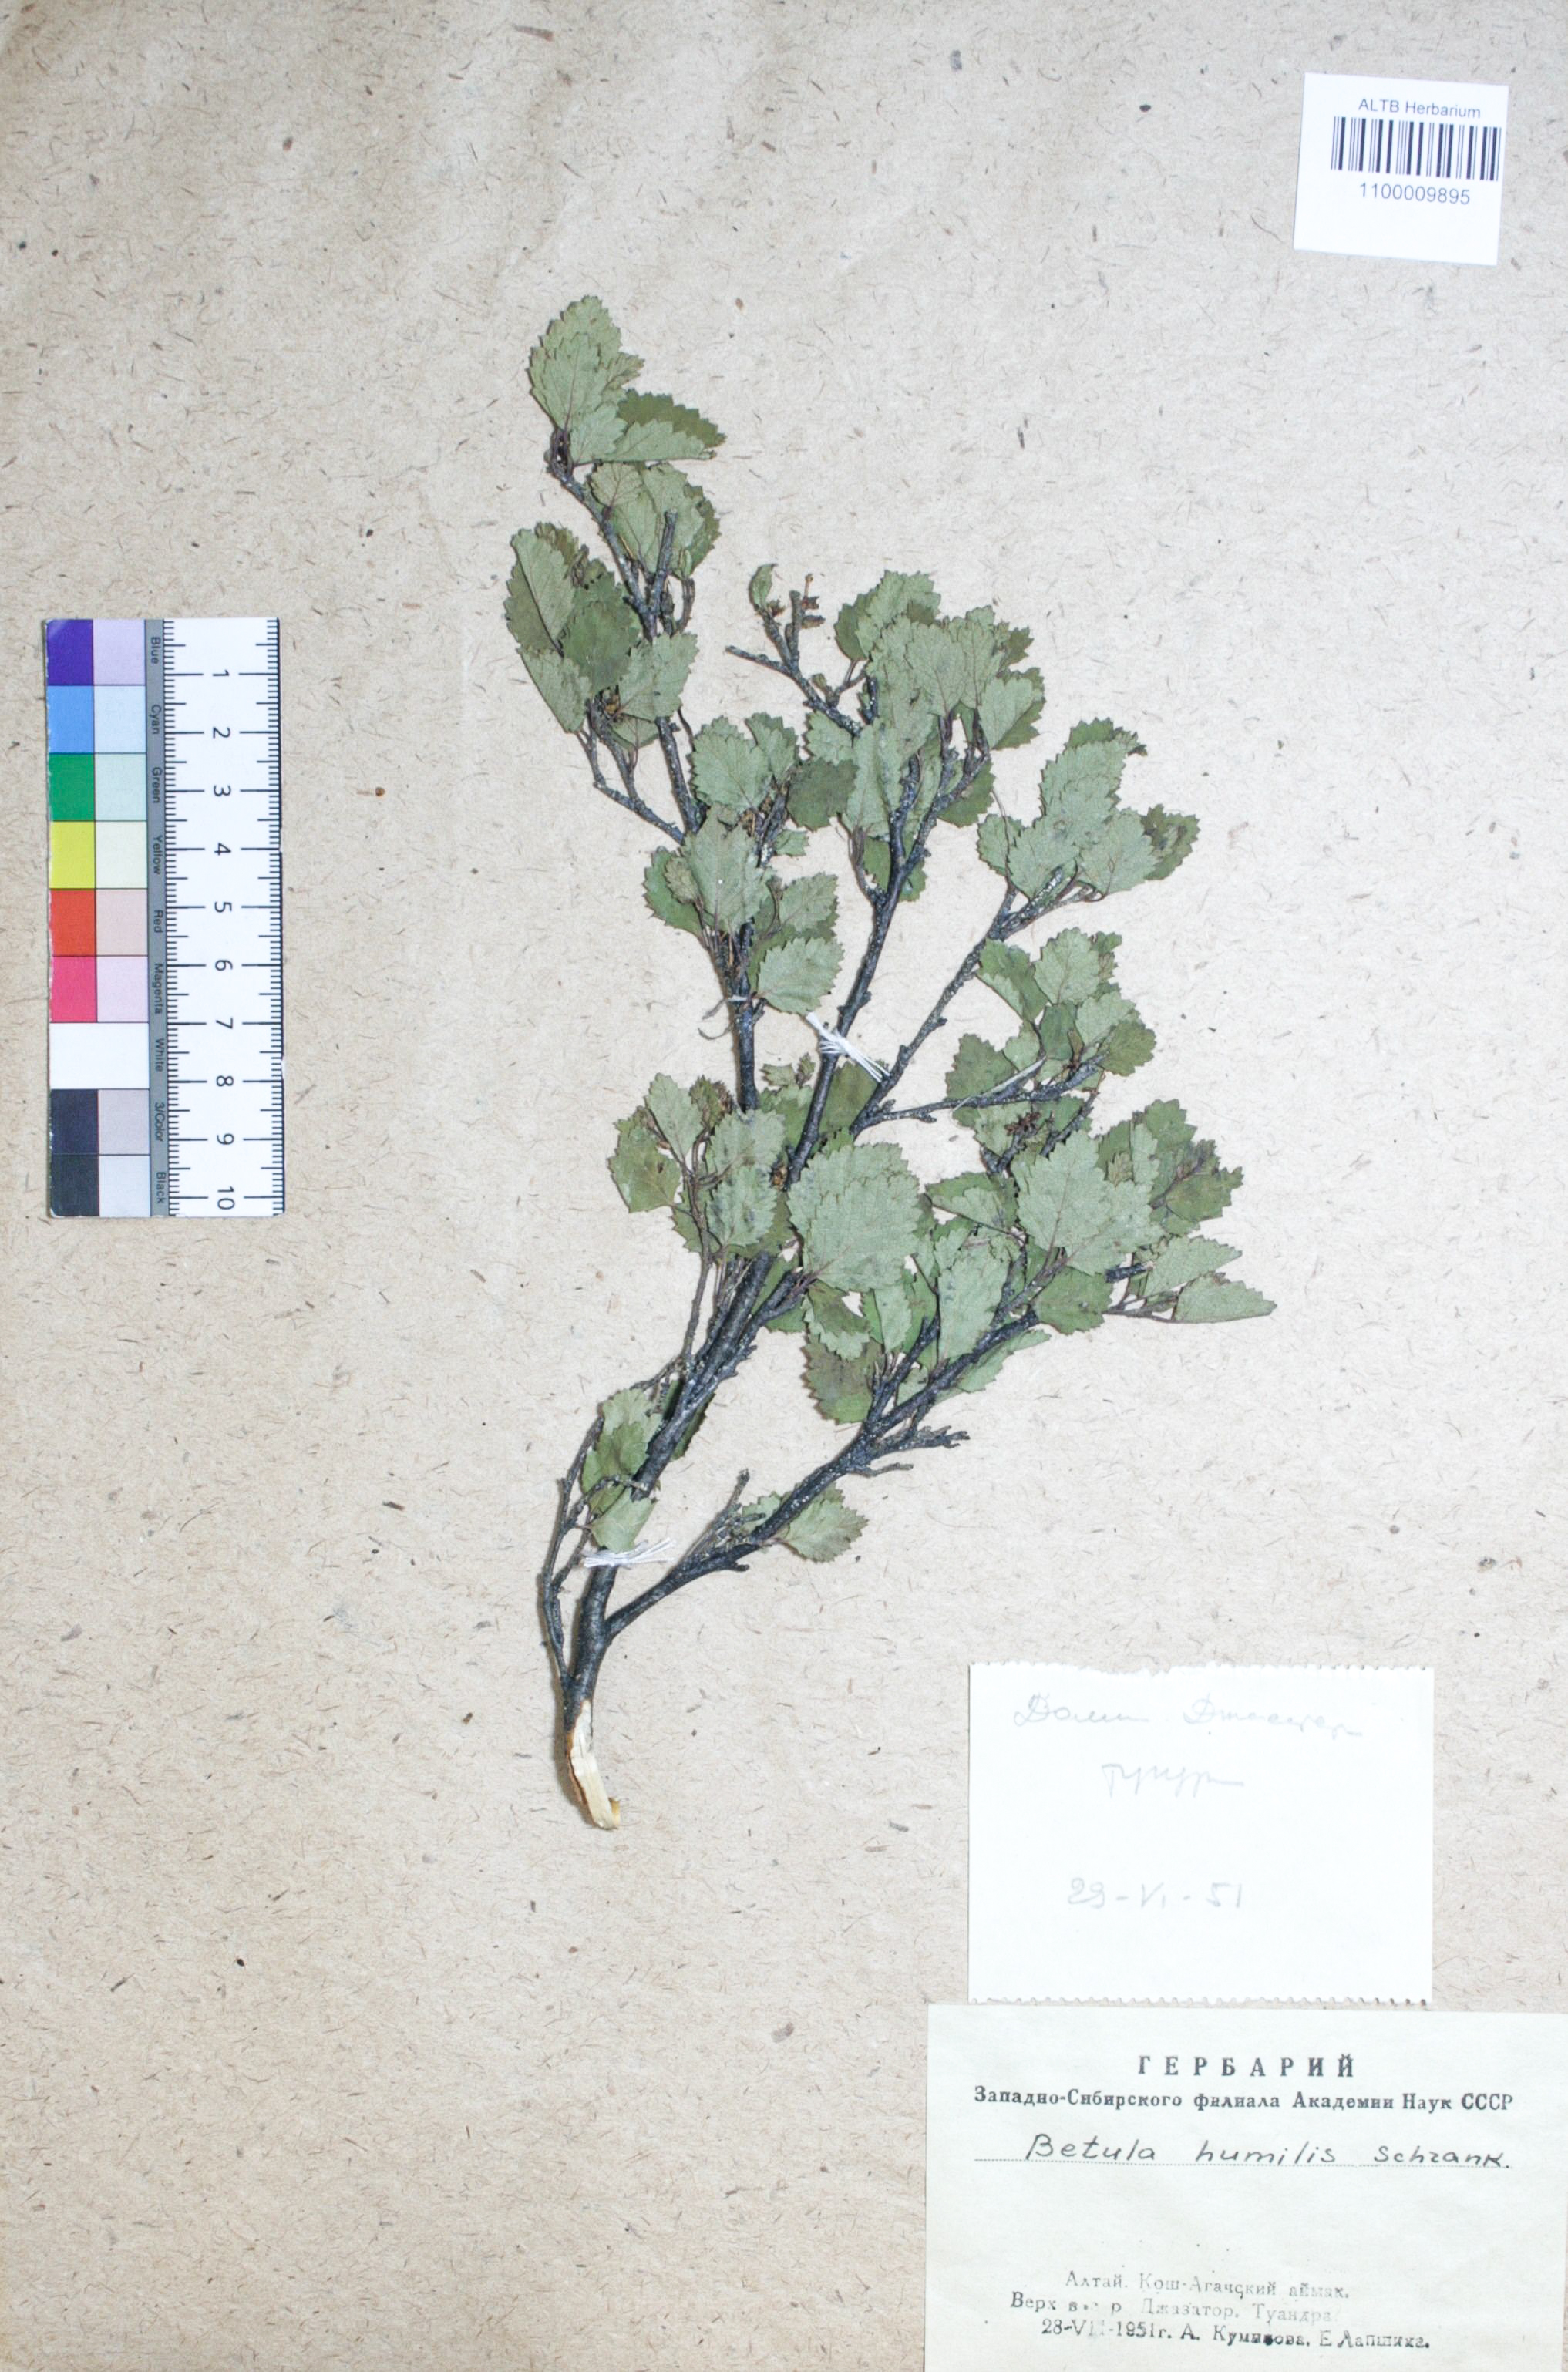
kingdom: Plantae
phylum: Tracheophyta
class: Magnoliopsida
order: Fagales
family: Betulaceae
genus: Betula
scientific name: Betula humilis
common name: Shrubby birch
